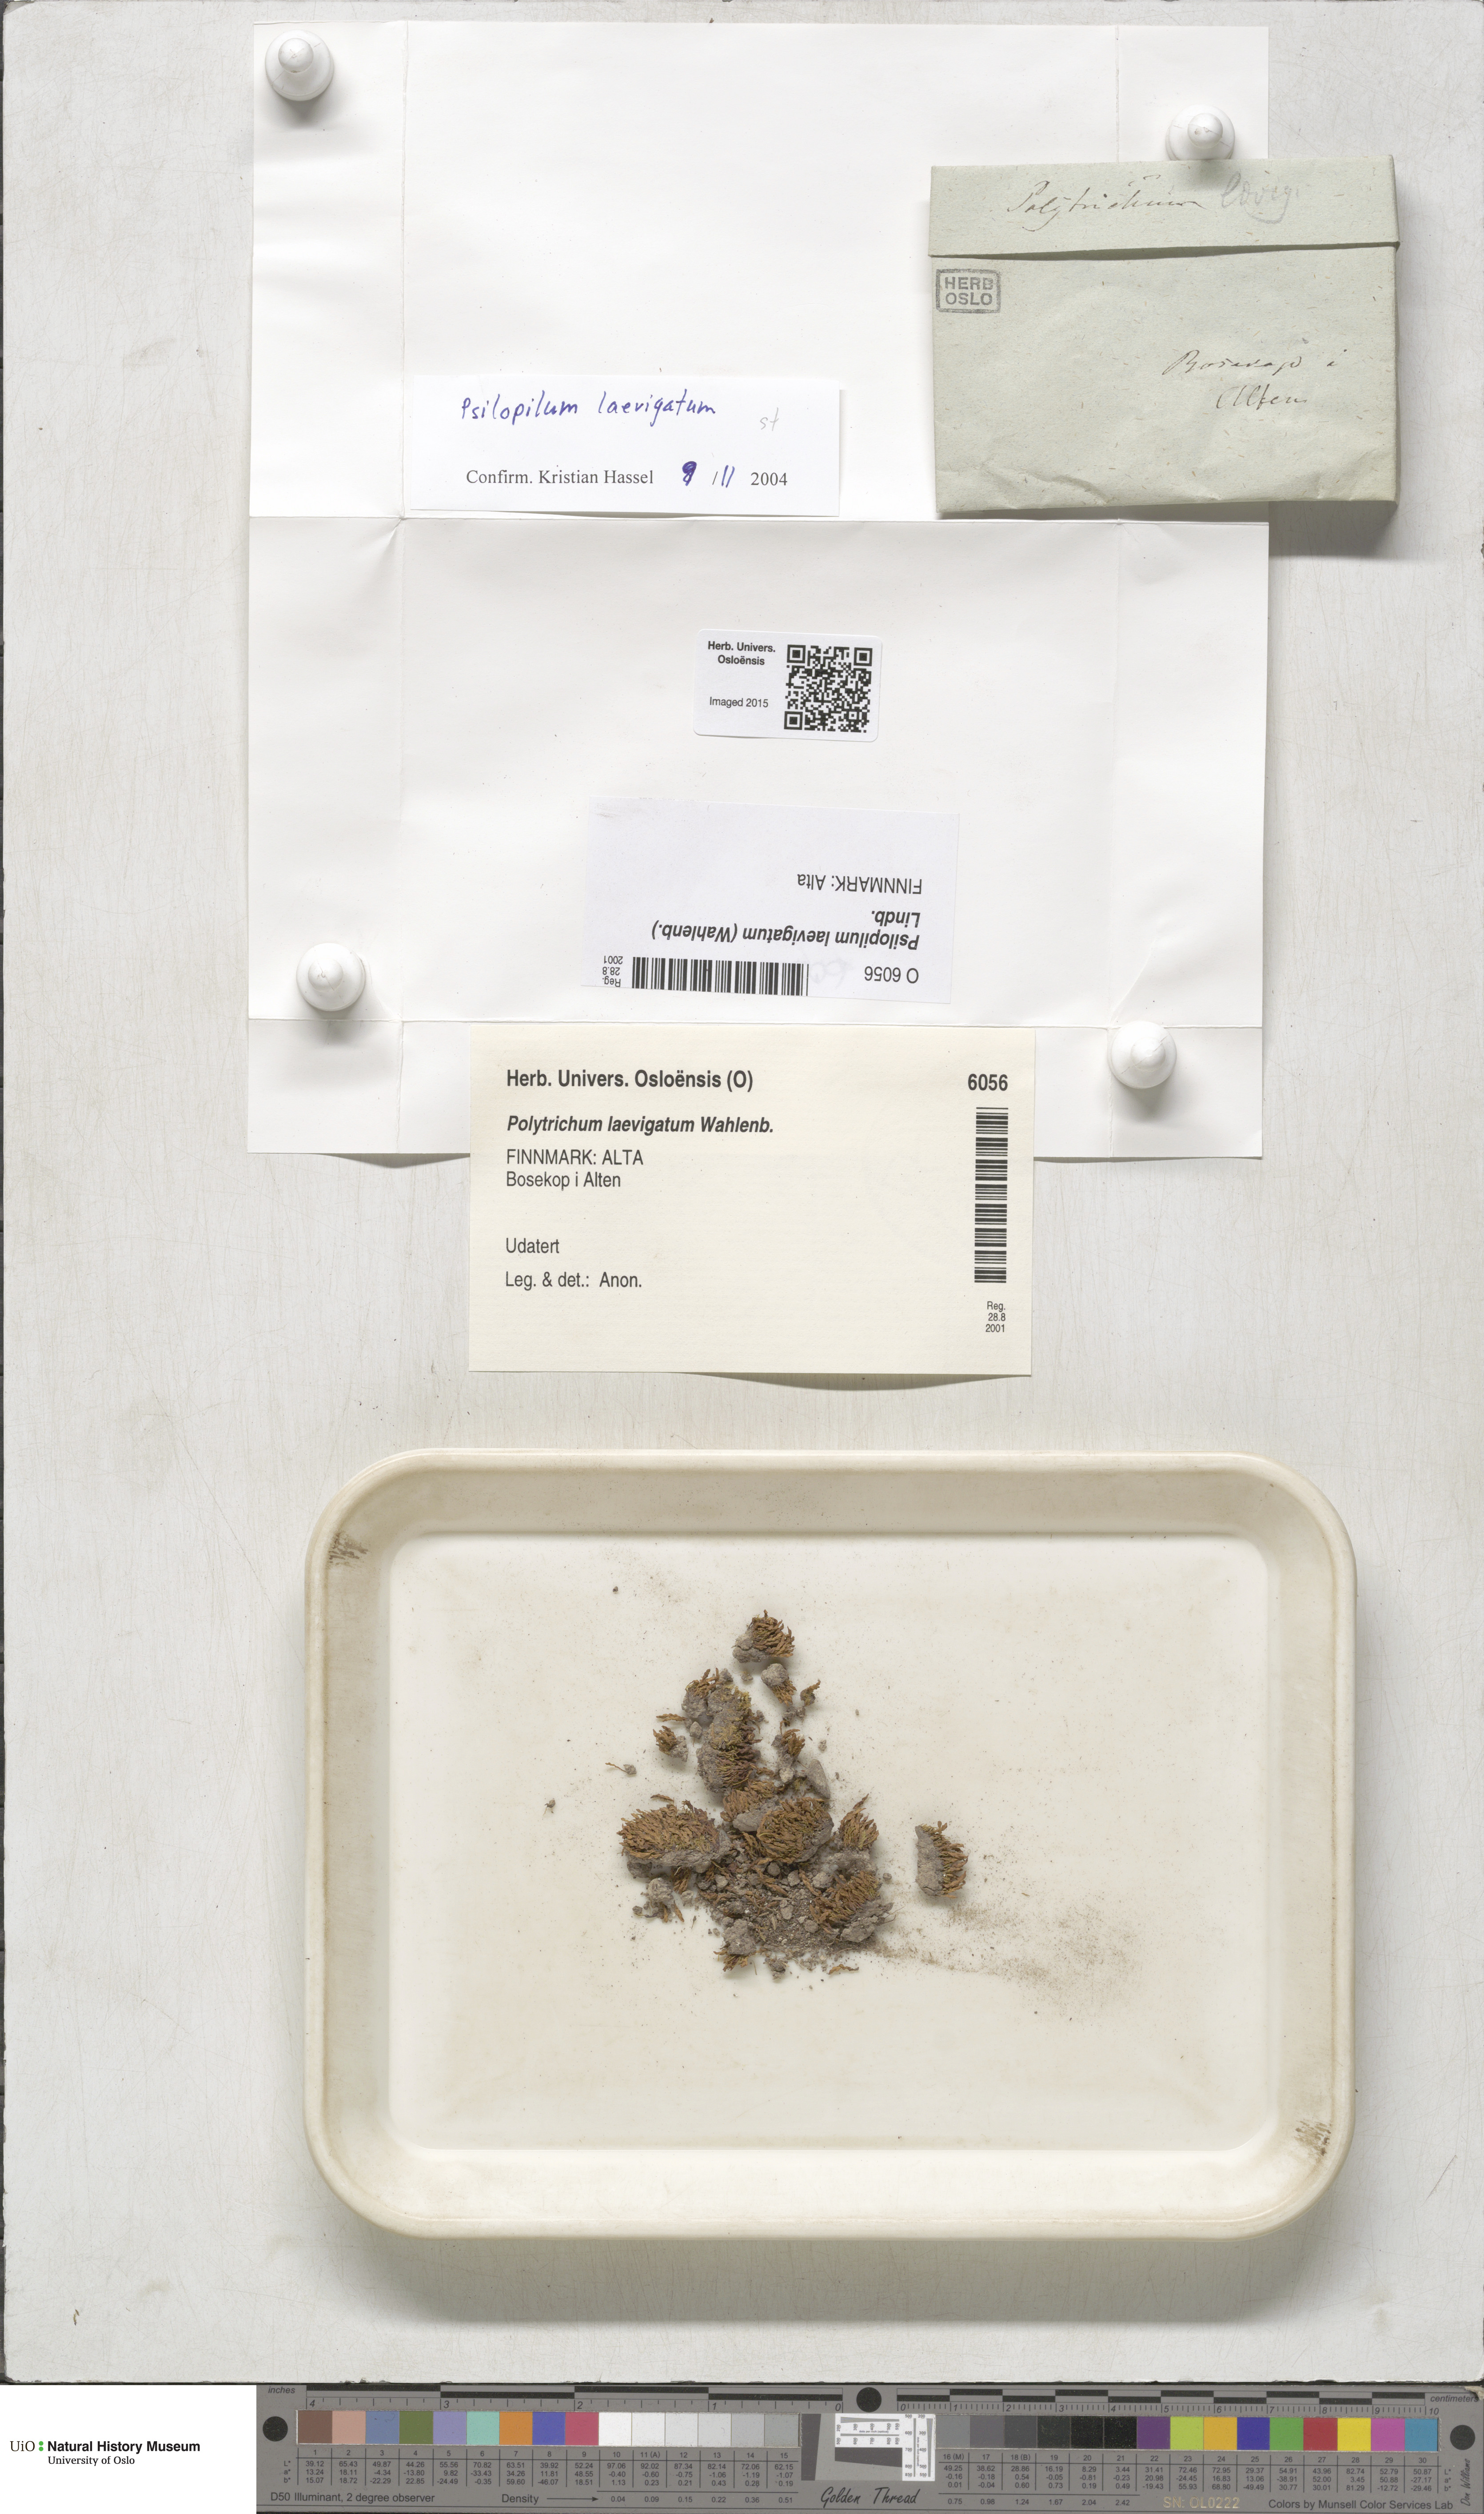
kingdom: Plantae
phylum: Bryophyta
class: Polytrichopsida
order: Polytrichales
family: Polytrichaceae
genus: Psilopilum
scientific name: Psilopilum laevigatum
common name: Large wolverine moss
